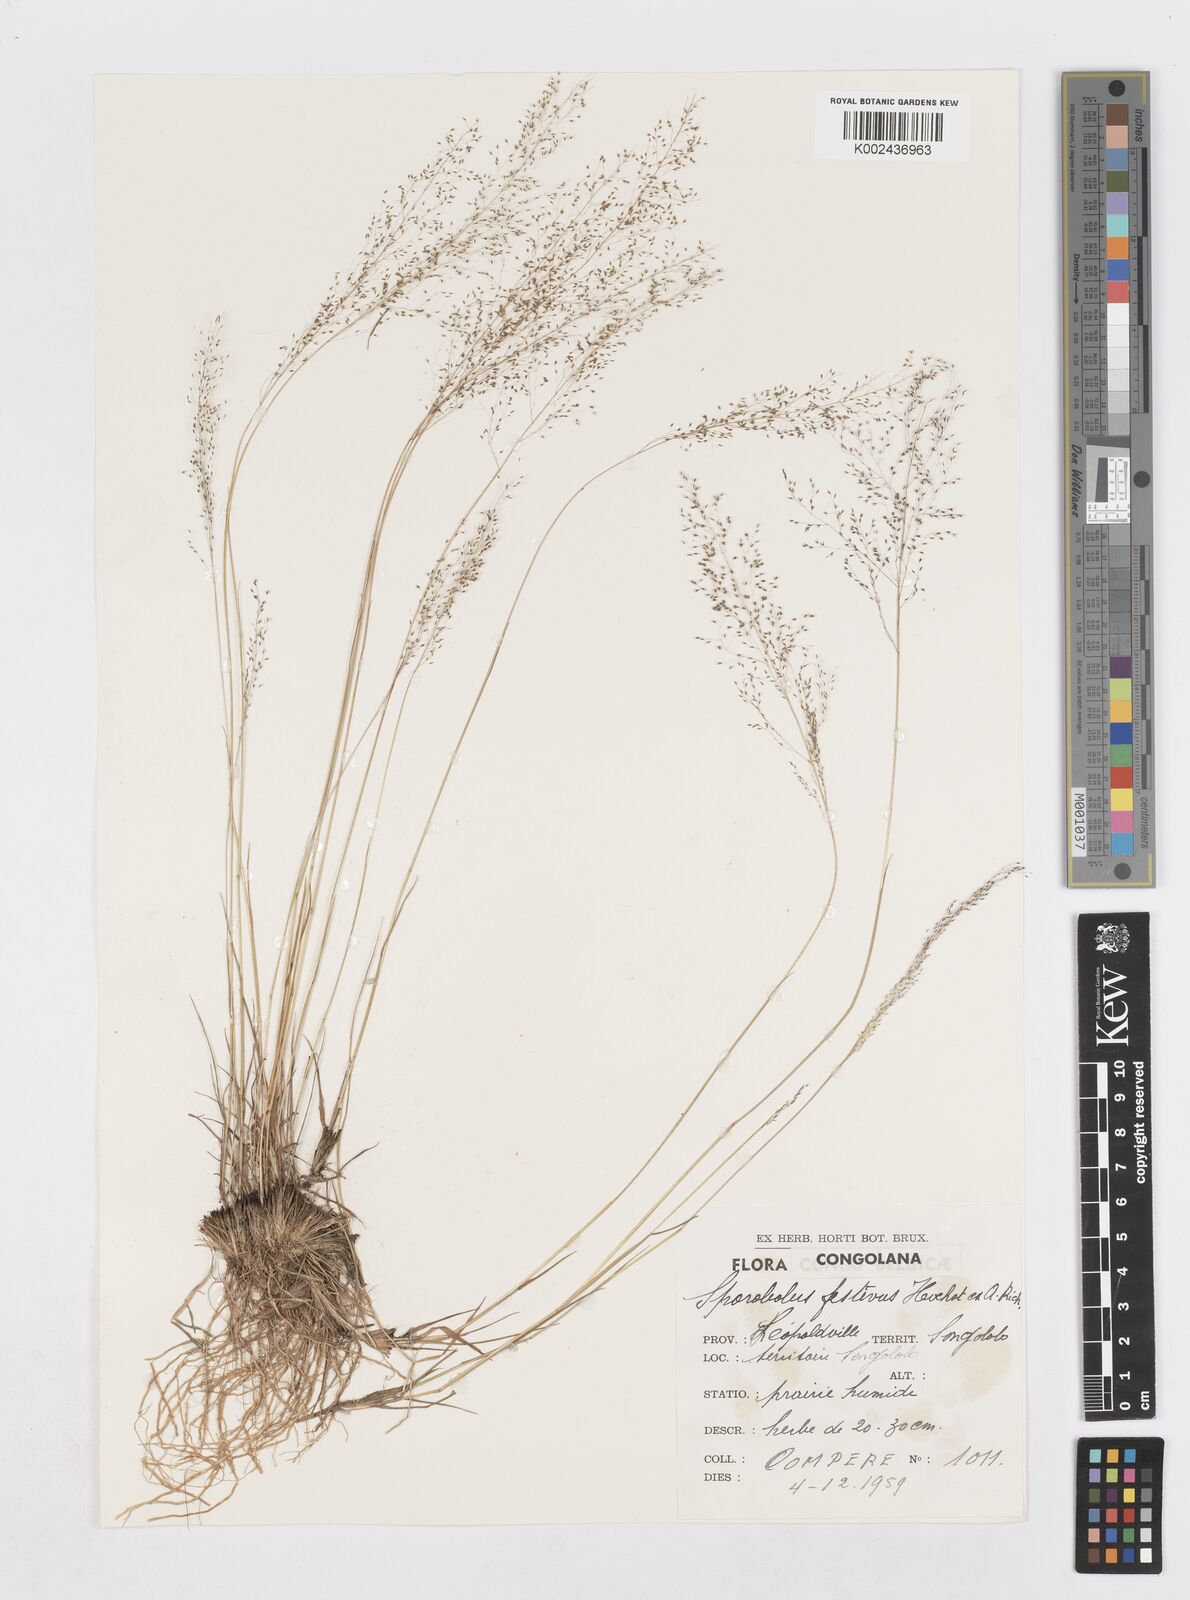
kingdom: Plantae
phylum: Tracheophyta
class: Liliopsida
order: Poales
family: Poaceae
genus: Sporobolus
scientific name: Sporobolus festivus
